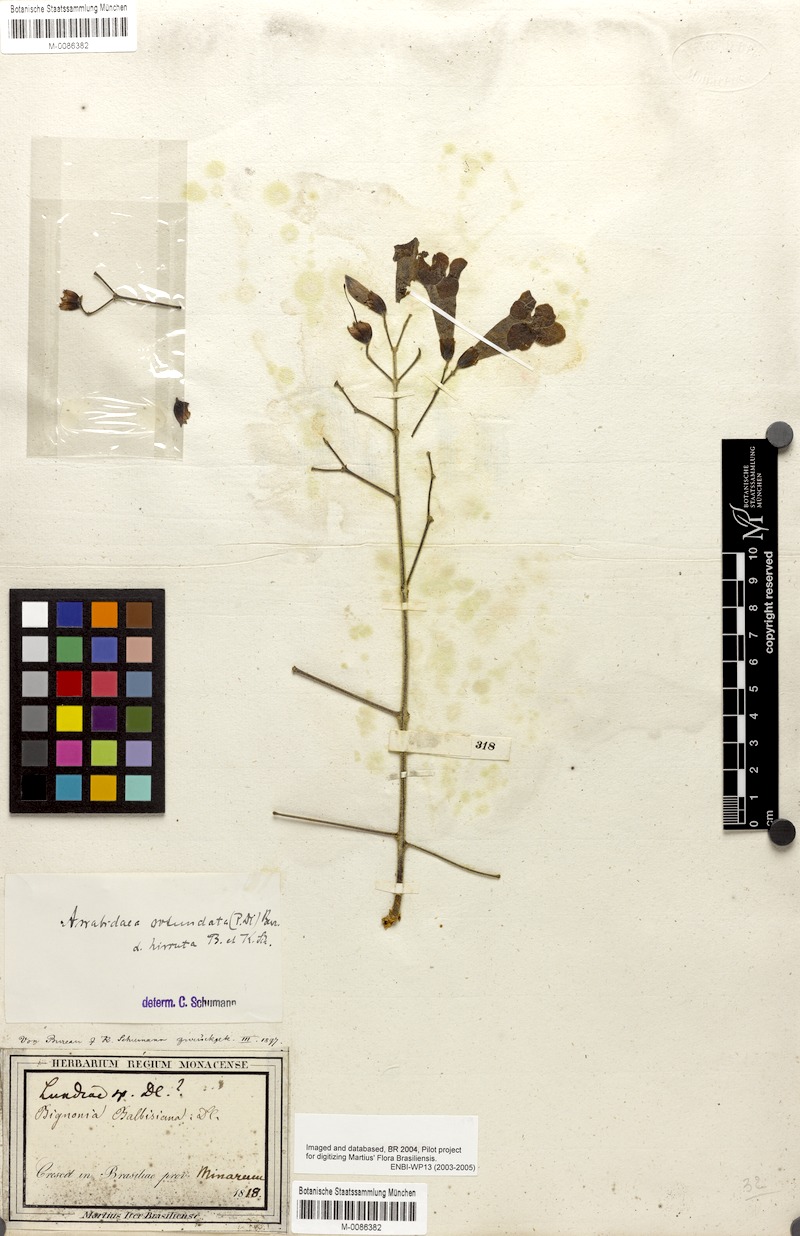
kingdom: Plantae
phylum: Tracheophyta
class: Magnoliopsida
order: Lamiales
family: Bignoniaceae
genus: Tanaecium
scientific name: Tanaecium dichotomum
